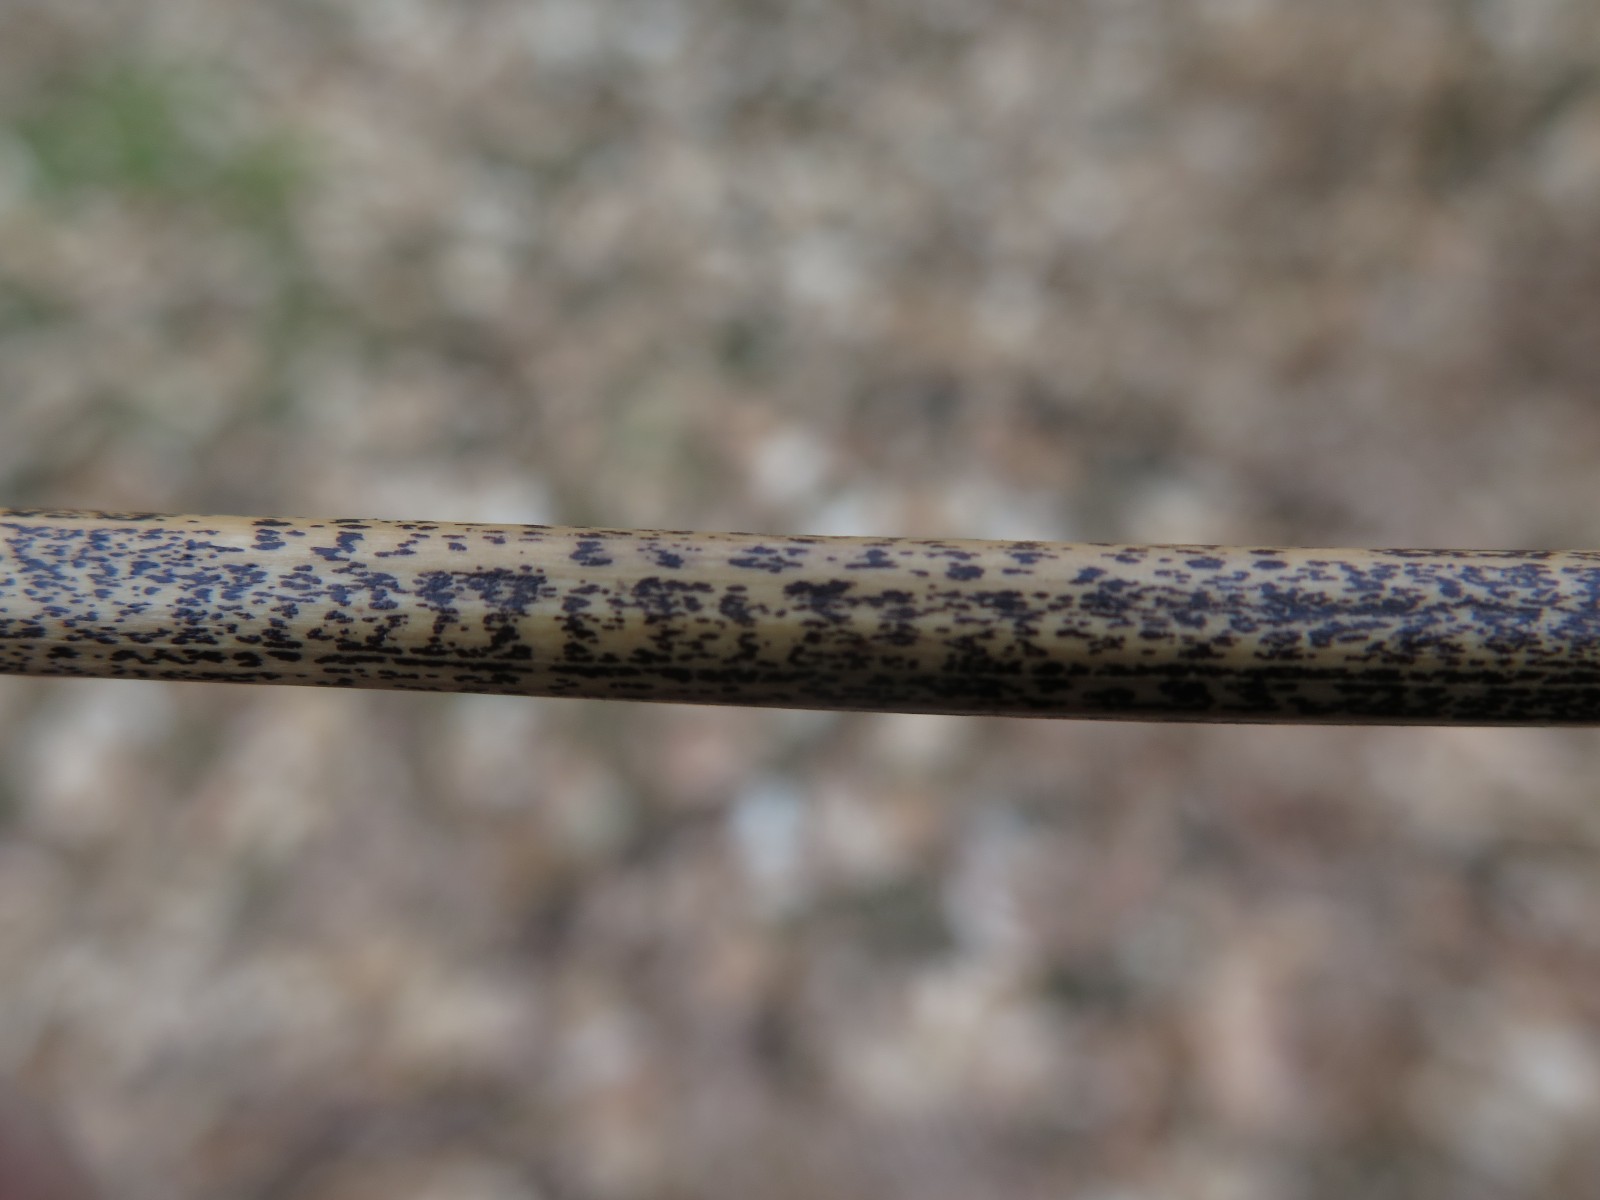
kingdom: Fungi
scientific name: Fungi
